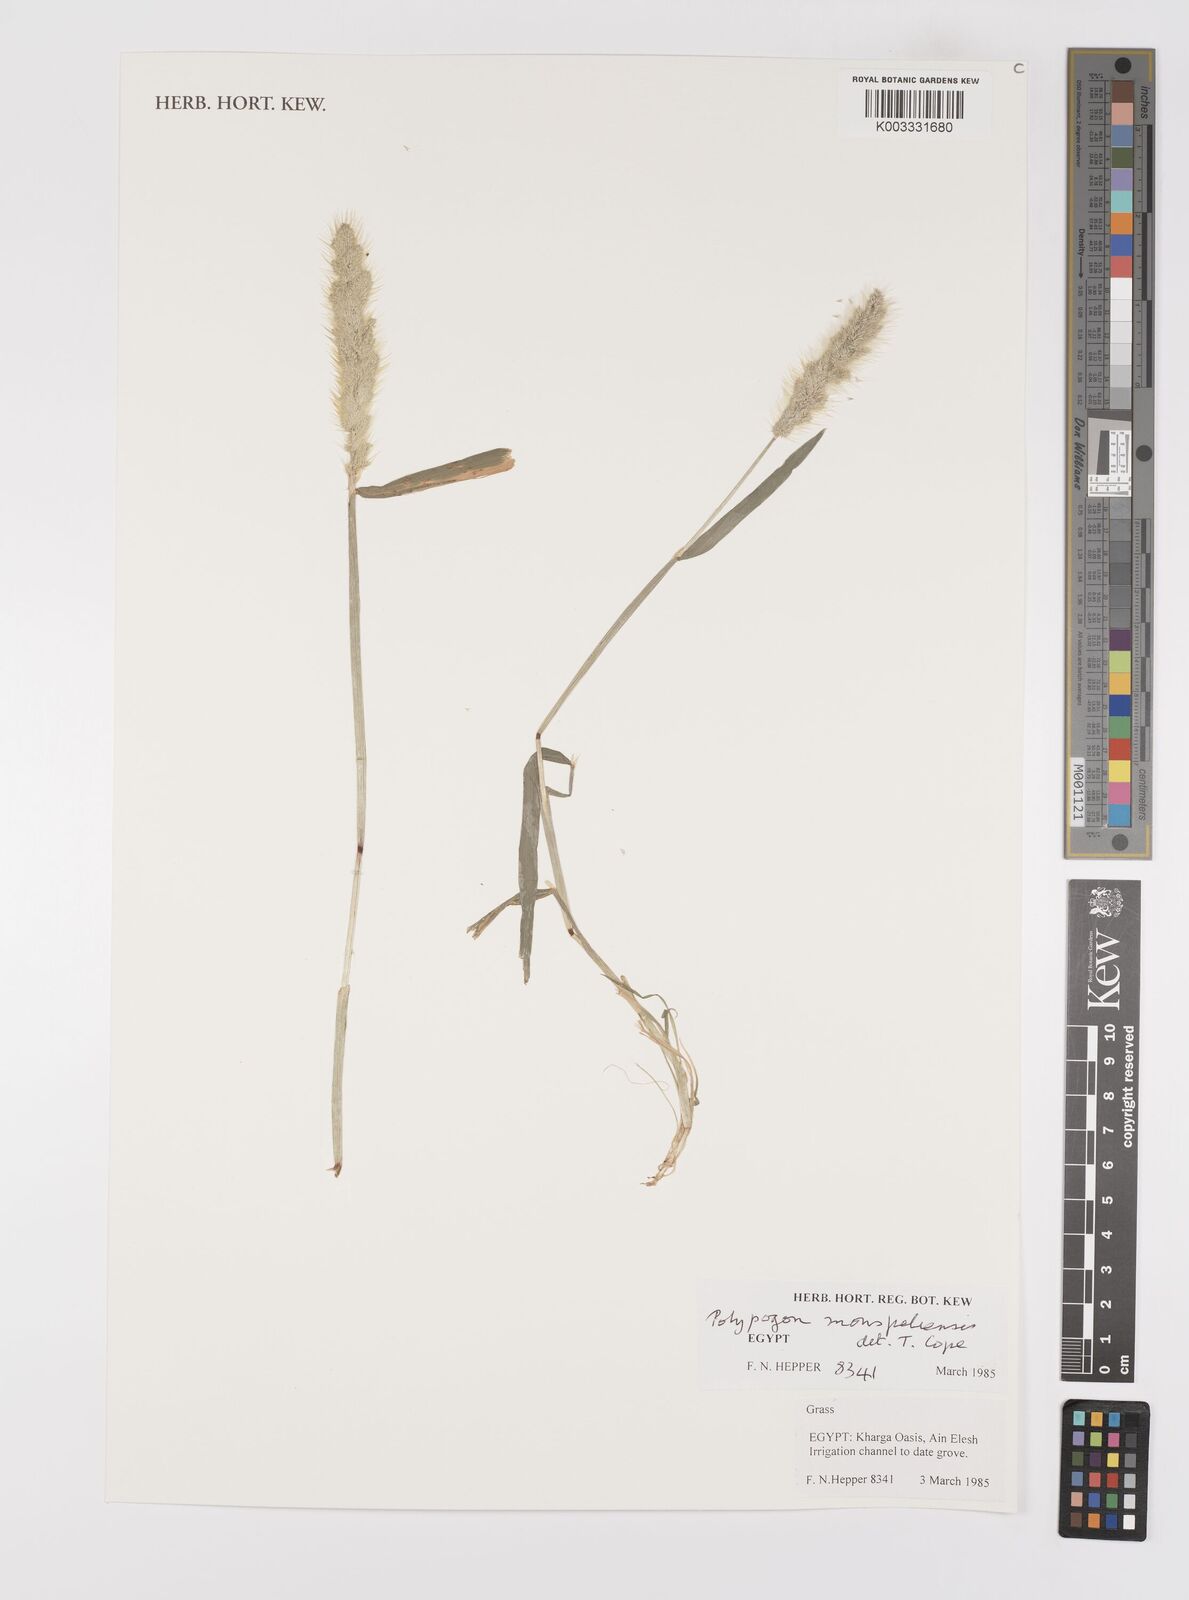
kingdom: Plantae
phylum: Tracheophyta
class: Liliopsida
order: Poales
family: Poaceae
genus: Polypogon
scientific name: Polypogon monspeliensis
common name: Annual rabbitsfoot grass
